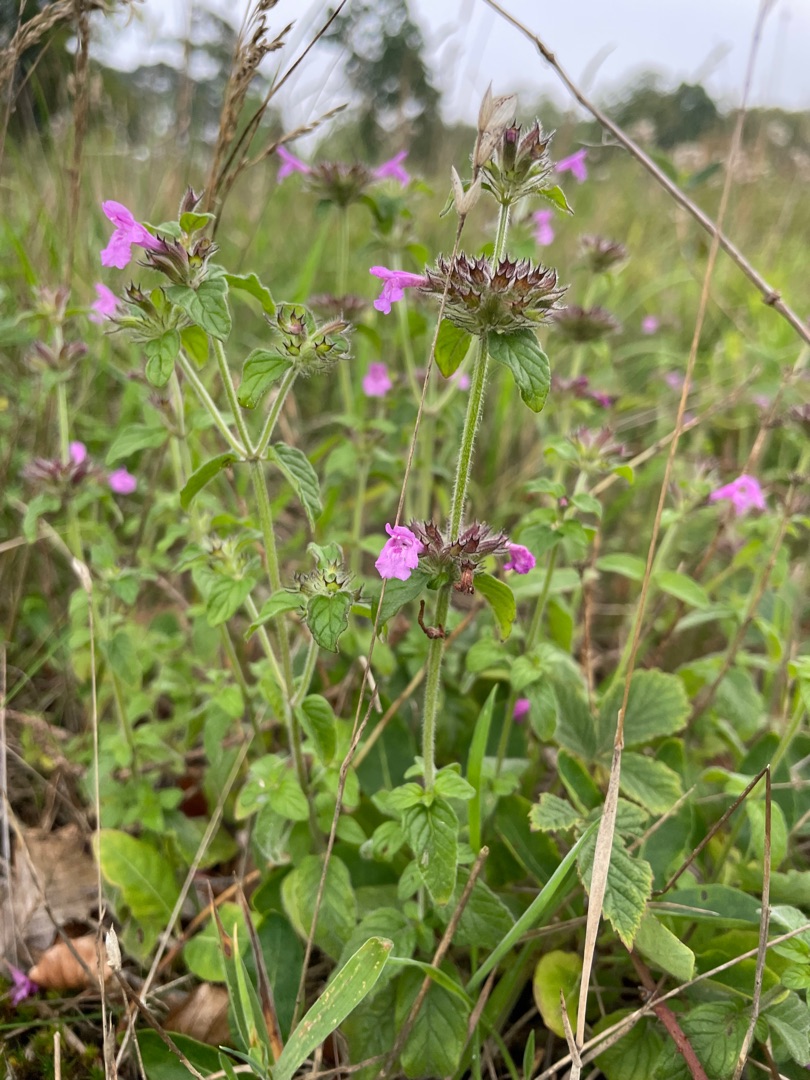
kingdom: Plantae
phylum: Tracheophyta
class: Magnoliopsida
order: Lamiales
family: Lamiaceae
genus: Clinopodium
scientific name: Clinopodium vulgare
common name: Kransbørste
